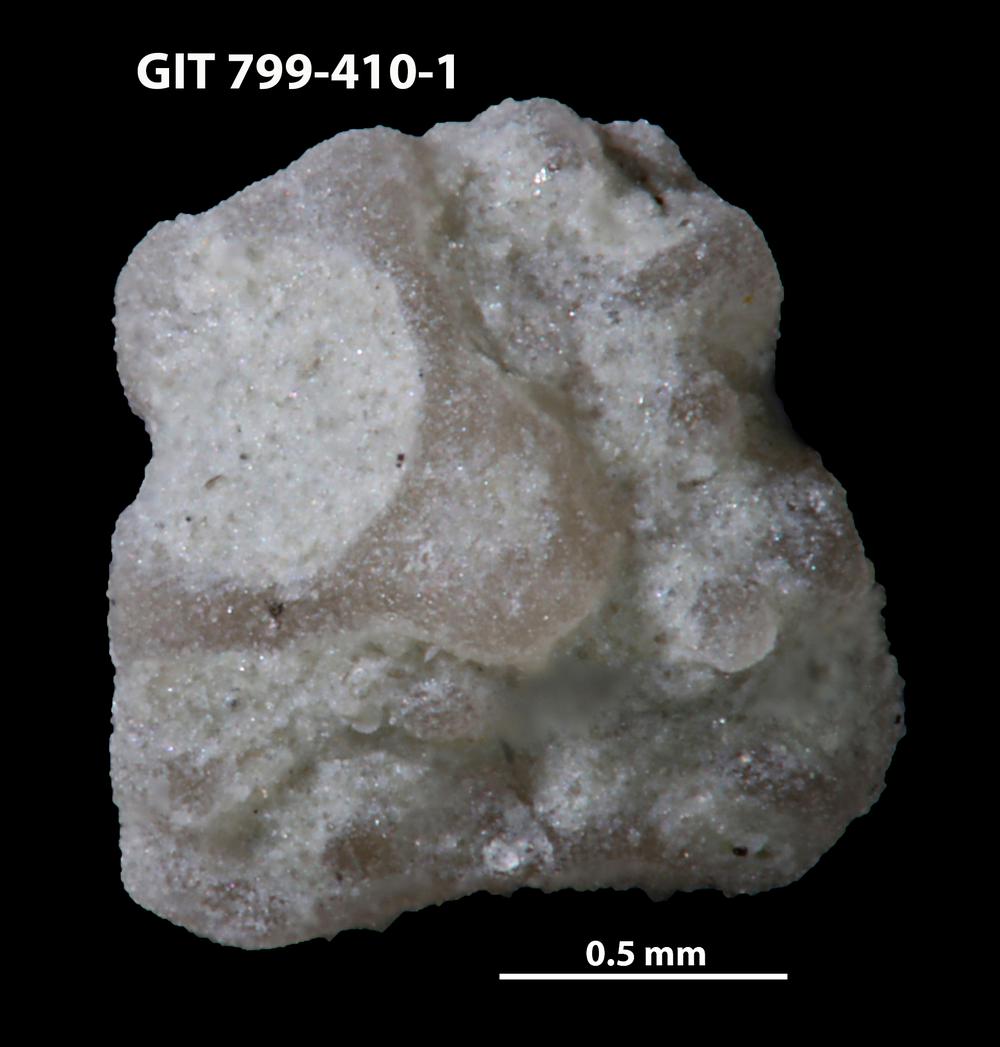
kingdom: Animalia
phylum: Echinodermata
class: Echinoidea
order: Bothriocidaroida
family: Bothriocidaridae
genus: Neobothriocidaris
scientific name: Neobothriocidaris
